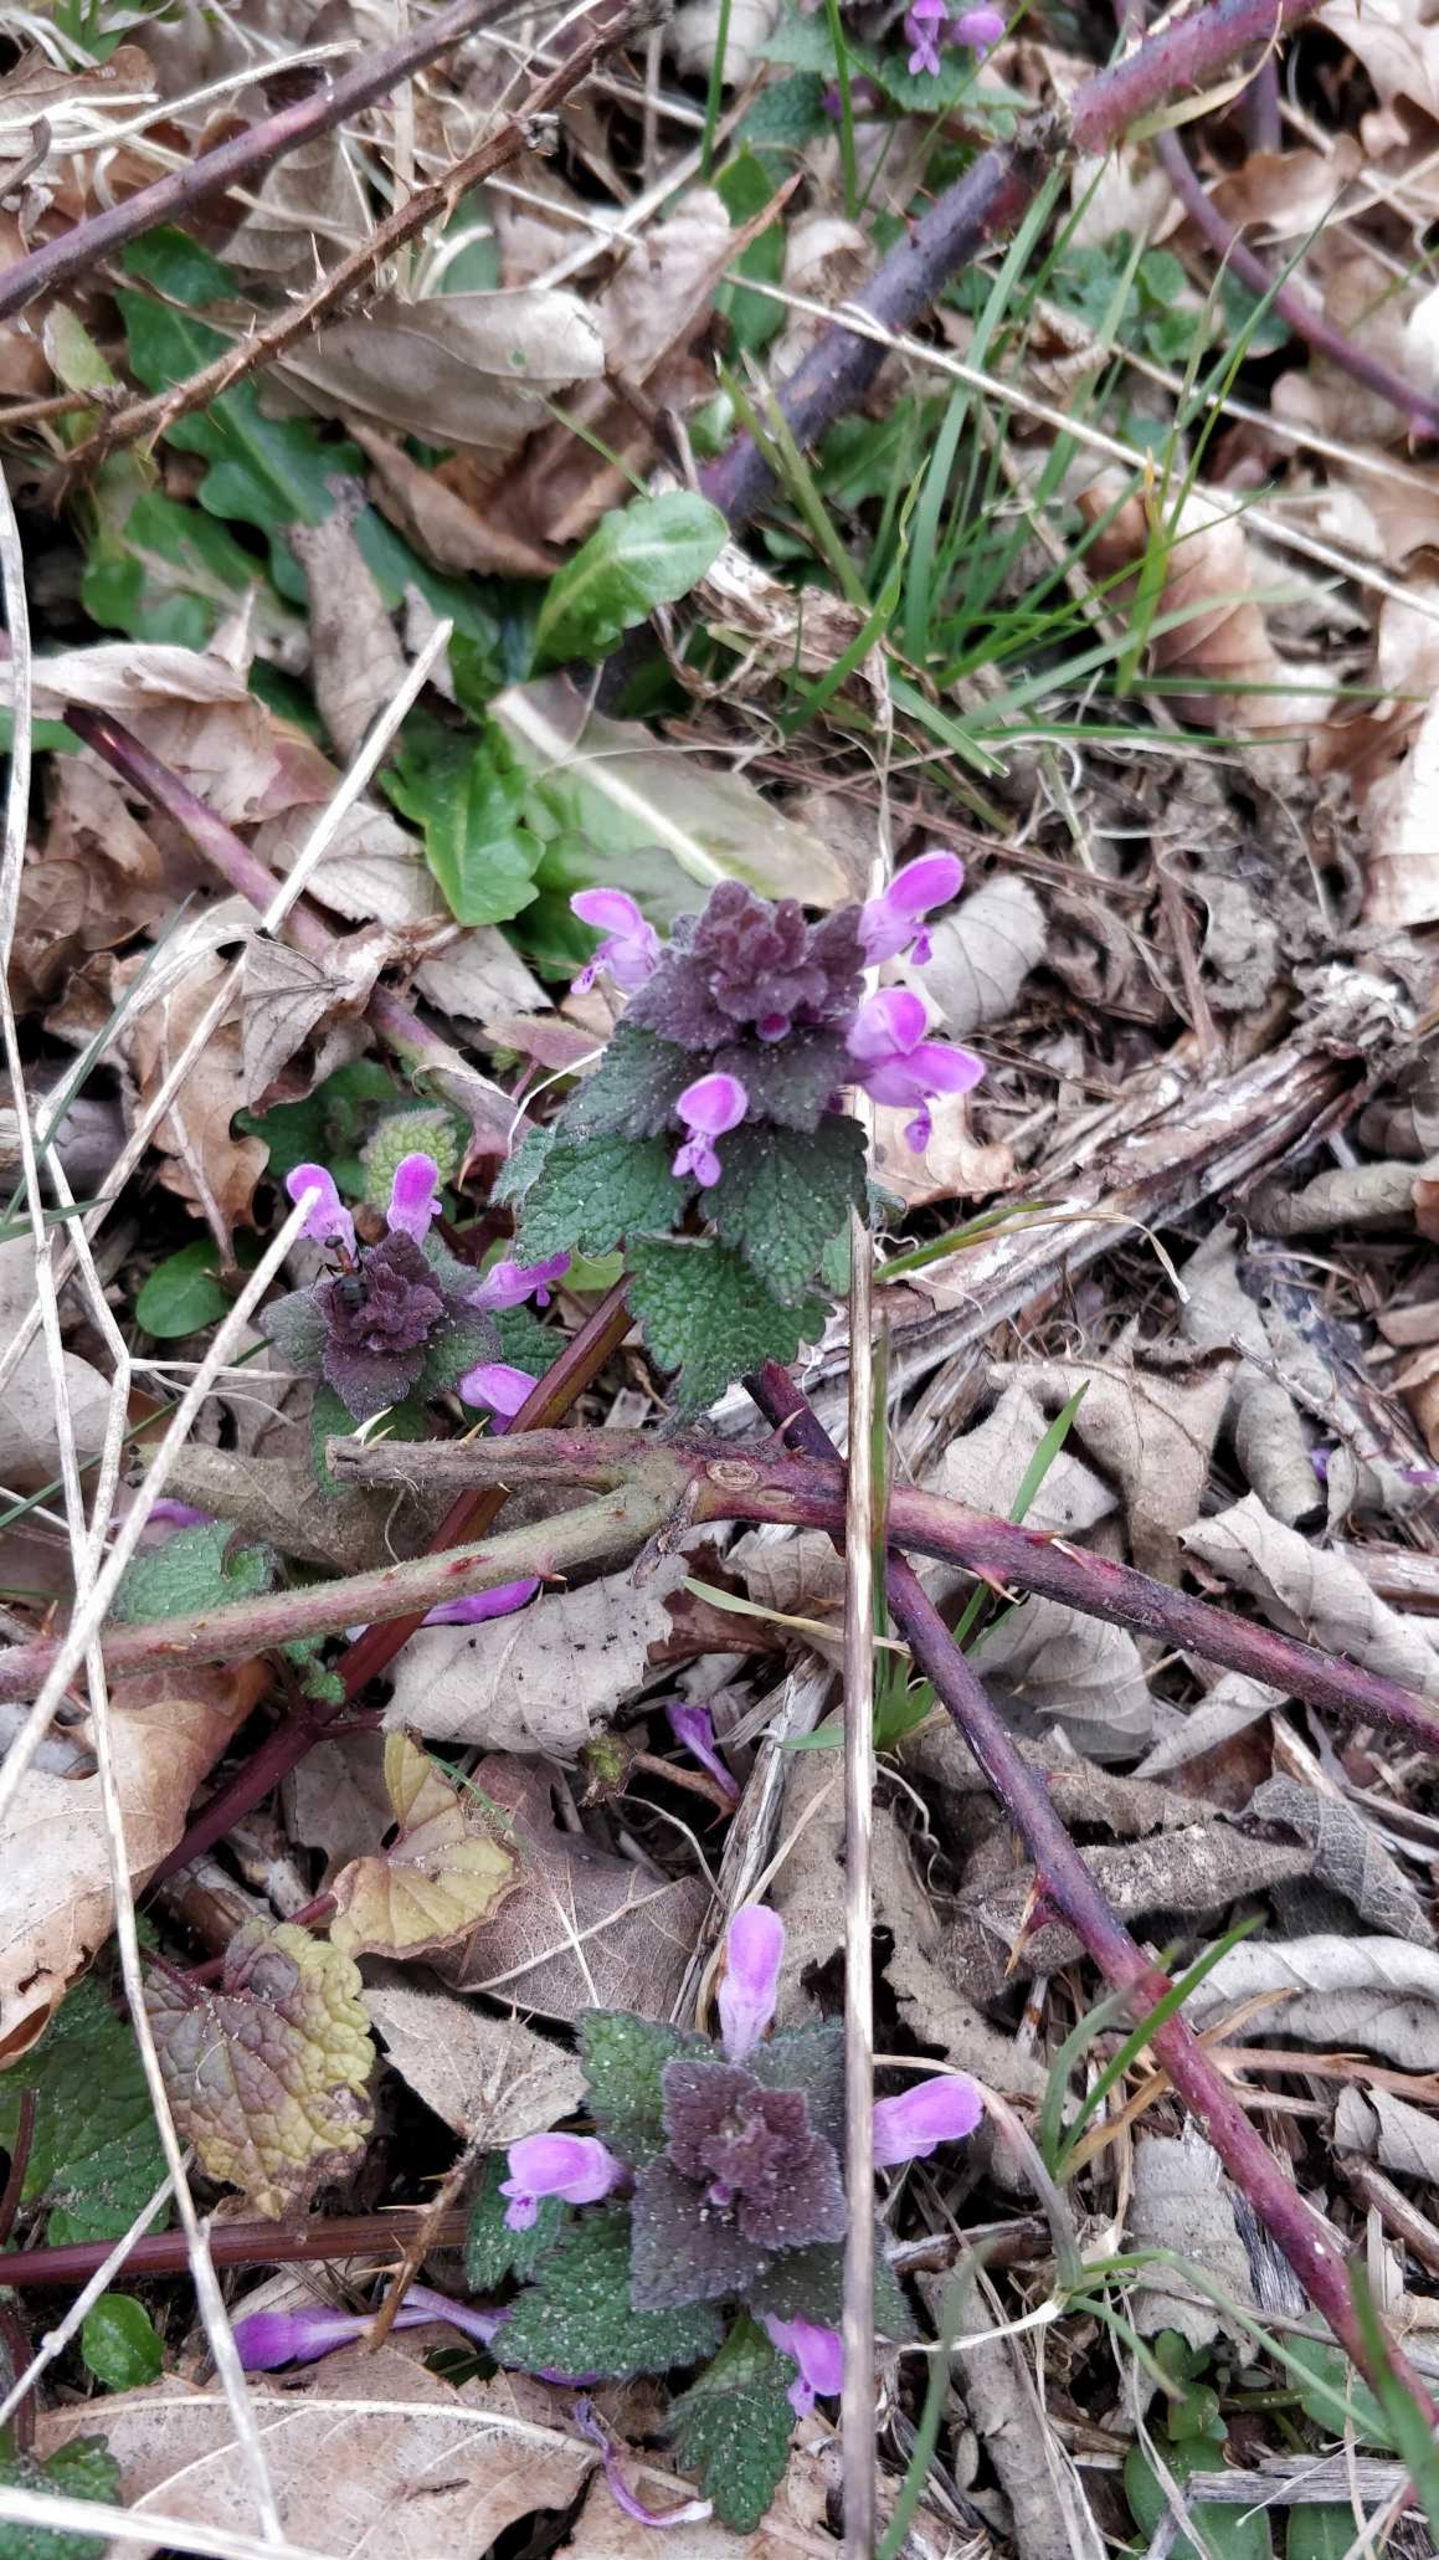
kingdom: Plantae
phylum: Tracheophyta
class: Magnoliopsida
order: Lamiales
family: Lamiaceae
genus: Lamium
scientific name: Lamium purpureum
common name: Rød tvetand
